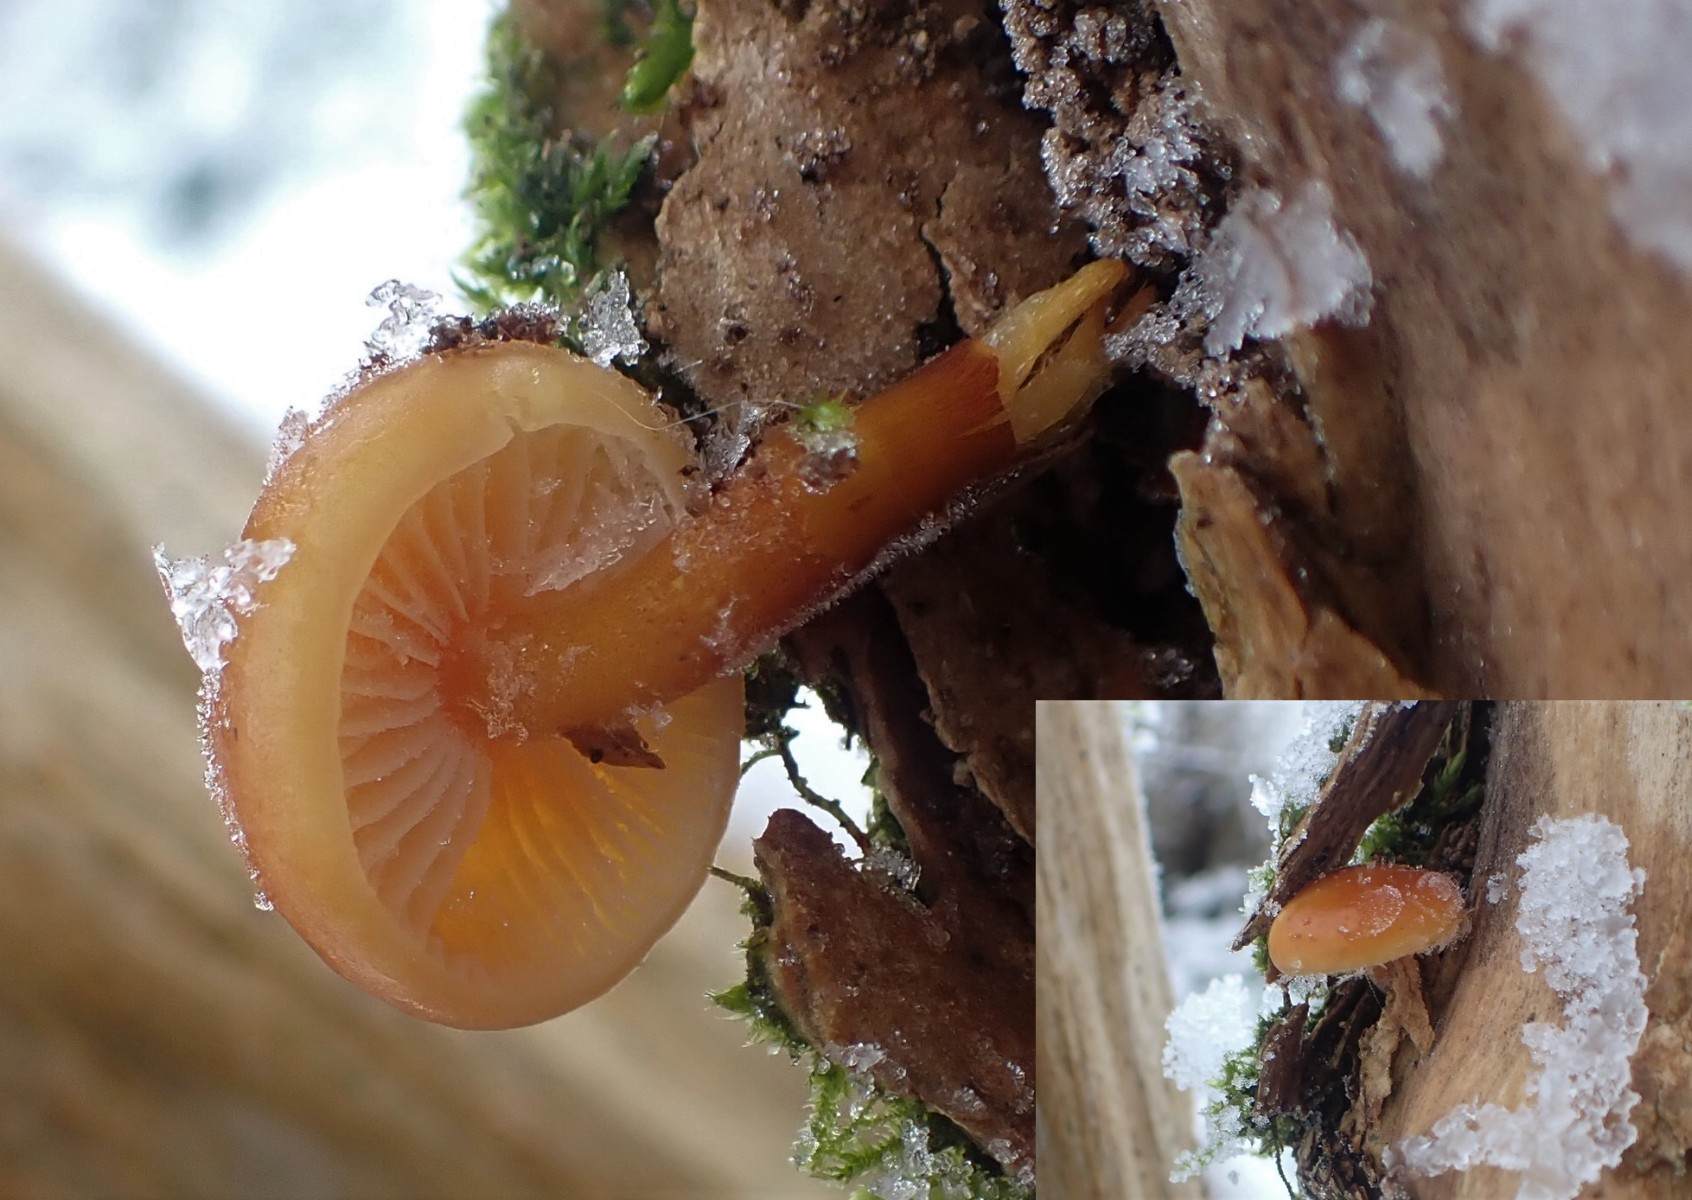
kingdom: Fungi
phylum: Basidiomycota
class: Agaricomycetes
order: Agaricales
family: Physalacriaceae
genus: Flammulina
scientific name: Flammulina velutipes
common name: gul fløjlsfod
